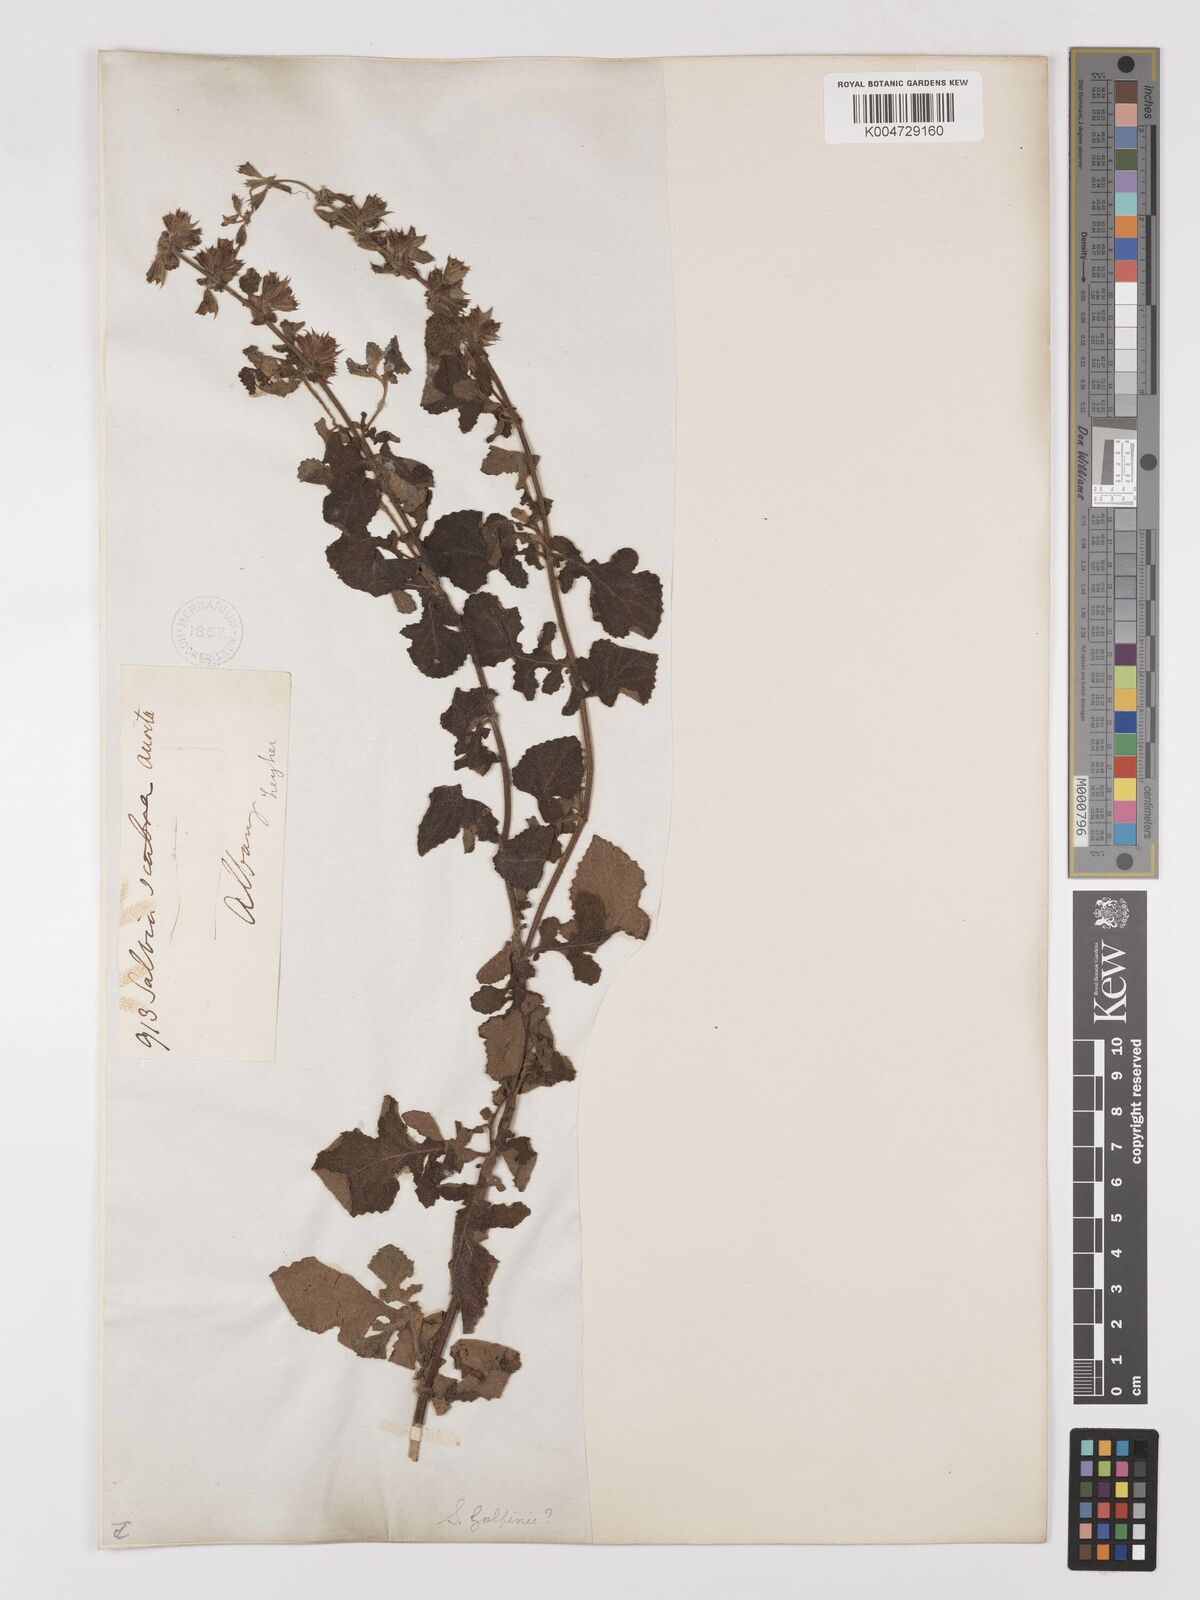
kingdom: Plantae
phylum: Tracheophyta
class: Magnoliopsida
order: Lamiales
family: Lamiaceae
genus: Salvia
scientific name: Salvia aurita
